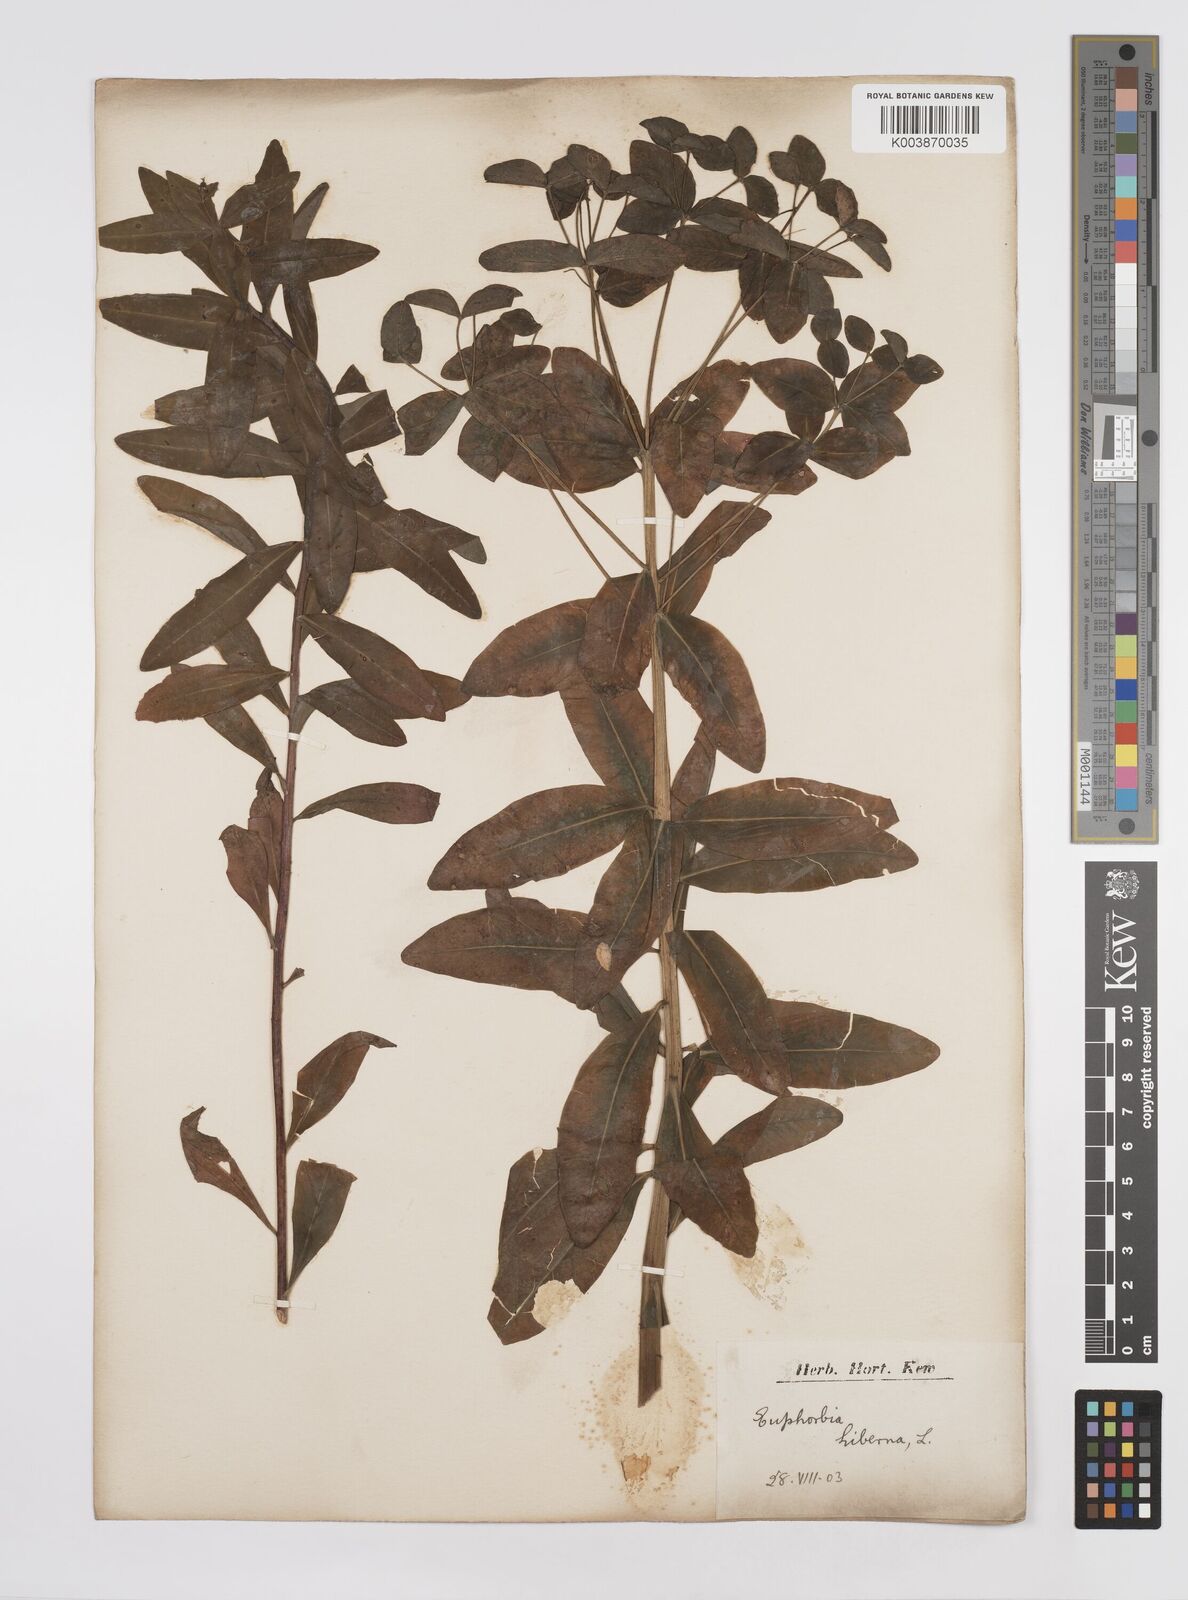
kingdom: Plantae
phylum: Tracheophyta
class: Magnoliopsida
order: Malpighiales
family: Euphorbiaceae
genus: Euphorbia
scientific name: Euphorbia hyberna
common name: Irish spurge
